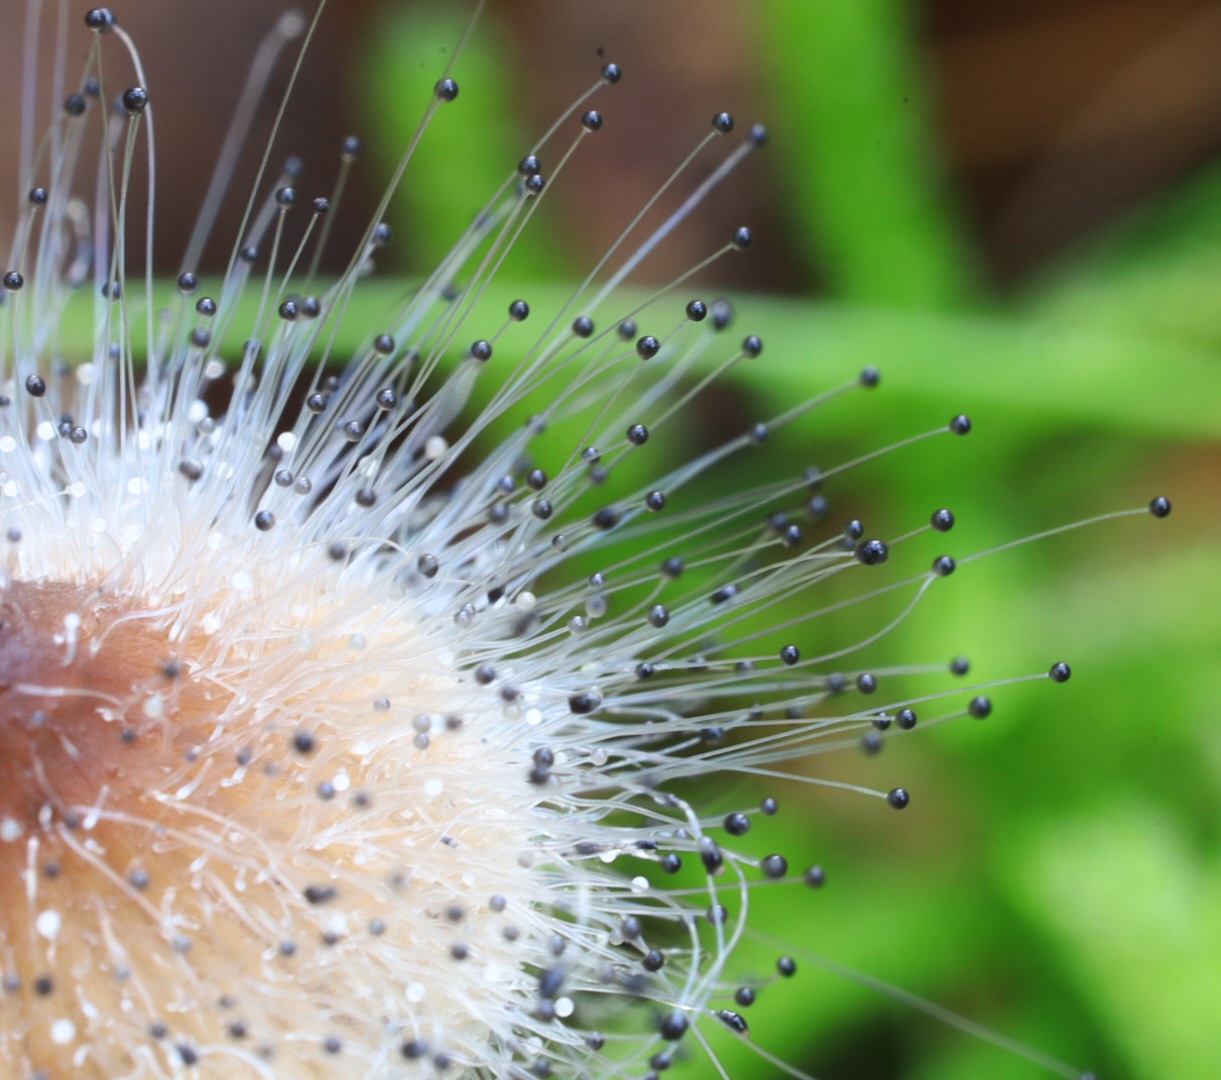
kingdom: Fungi
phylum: Mucoromycota
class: Mucoromycetes
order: Mucorales
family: Phycomycetaceae
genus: Spinellus
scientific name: Spinellus fusiger
